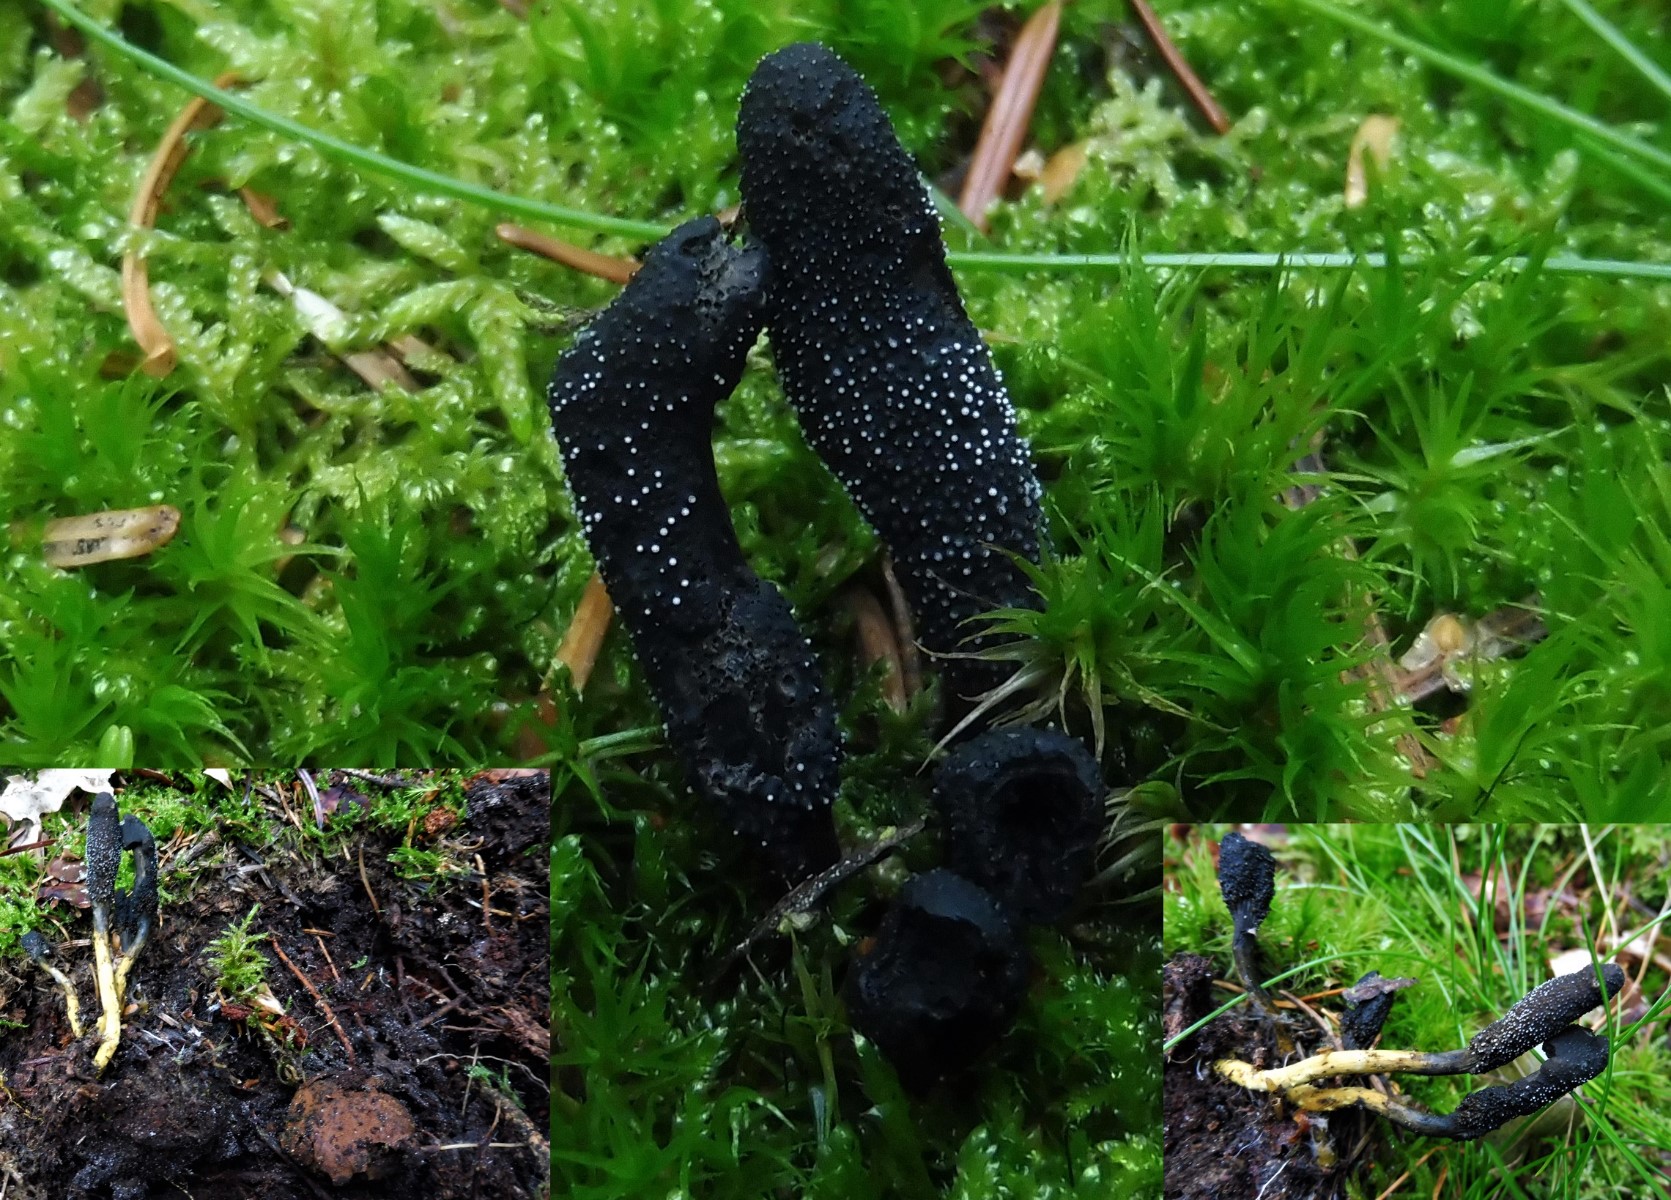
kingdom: Fungi
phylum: Ascomycota
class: Sordariomycetes
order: Hypocreales
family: Ophiocordycipitaceae
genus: Tolypocladium
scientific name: Tolypocladium ophioglossoides
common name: slank snyltekølle
